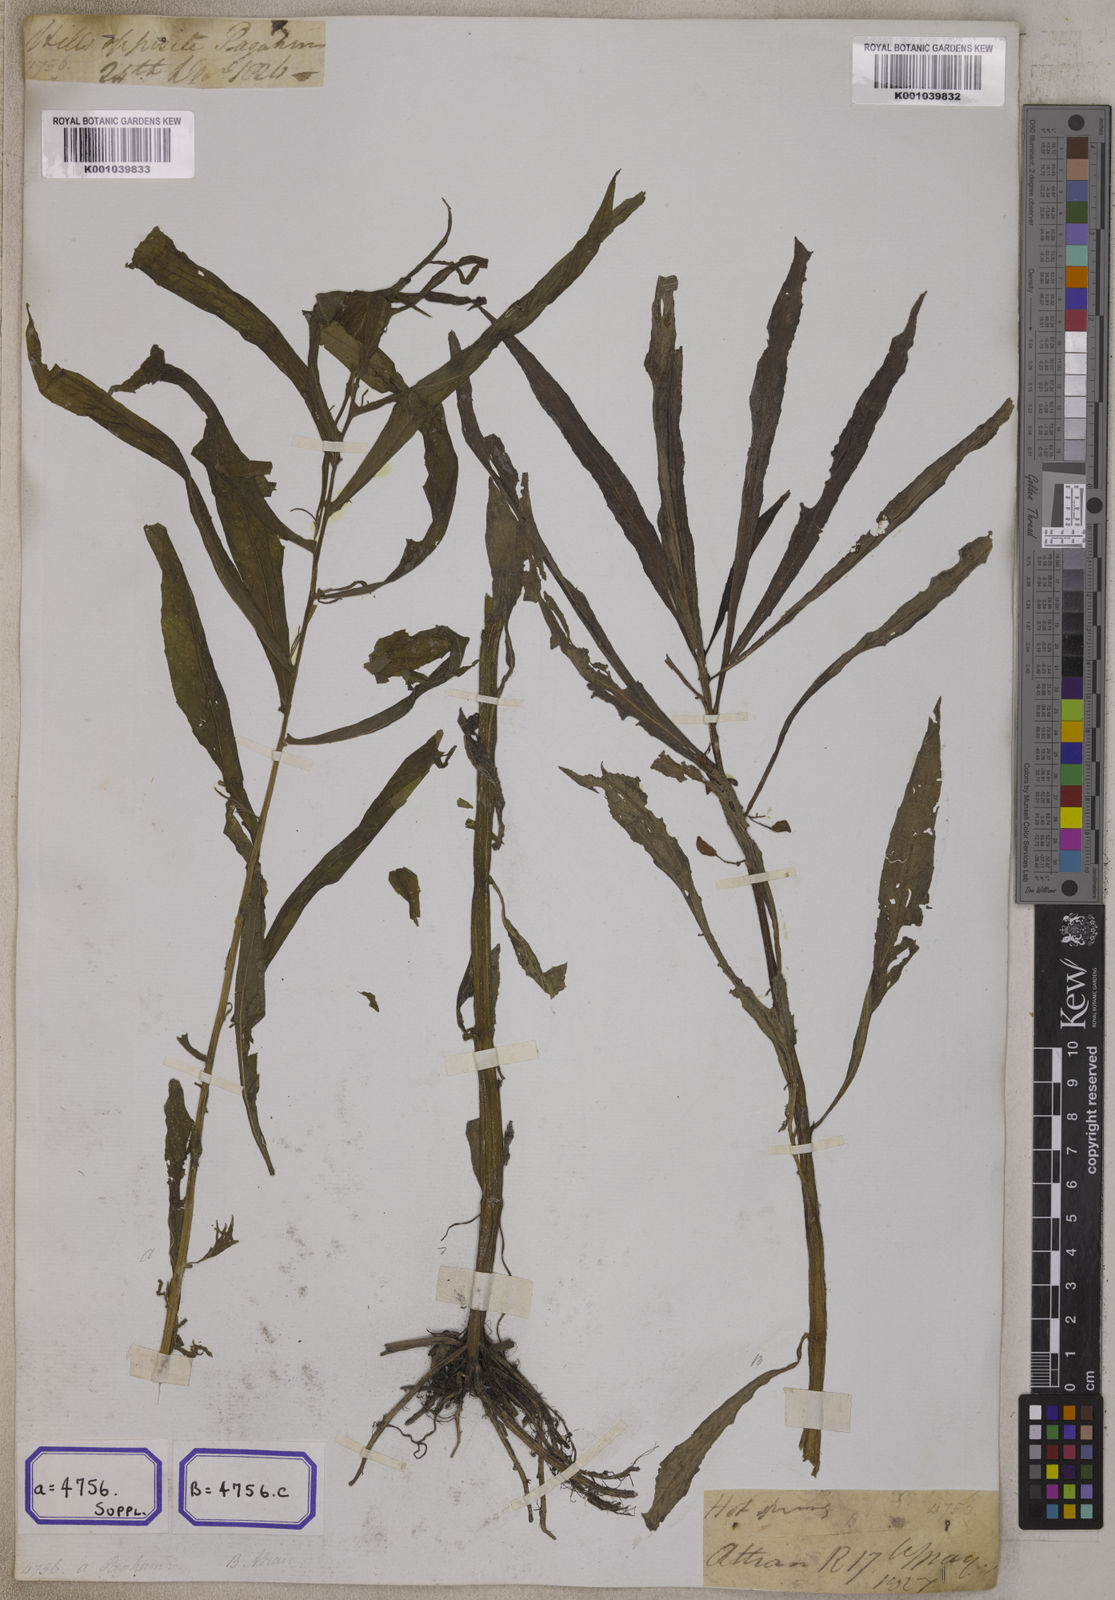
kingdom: Plantae
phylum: Tracheophyta
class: Magnoliopsida
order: Ericales
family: Balsaminaceae
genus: Hydrocera
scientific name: Hydrocera triflora
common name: Marsh henna
